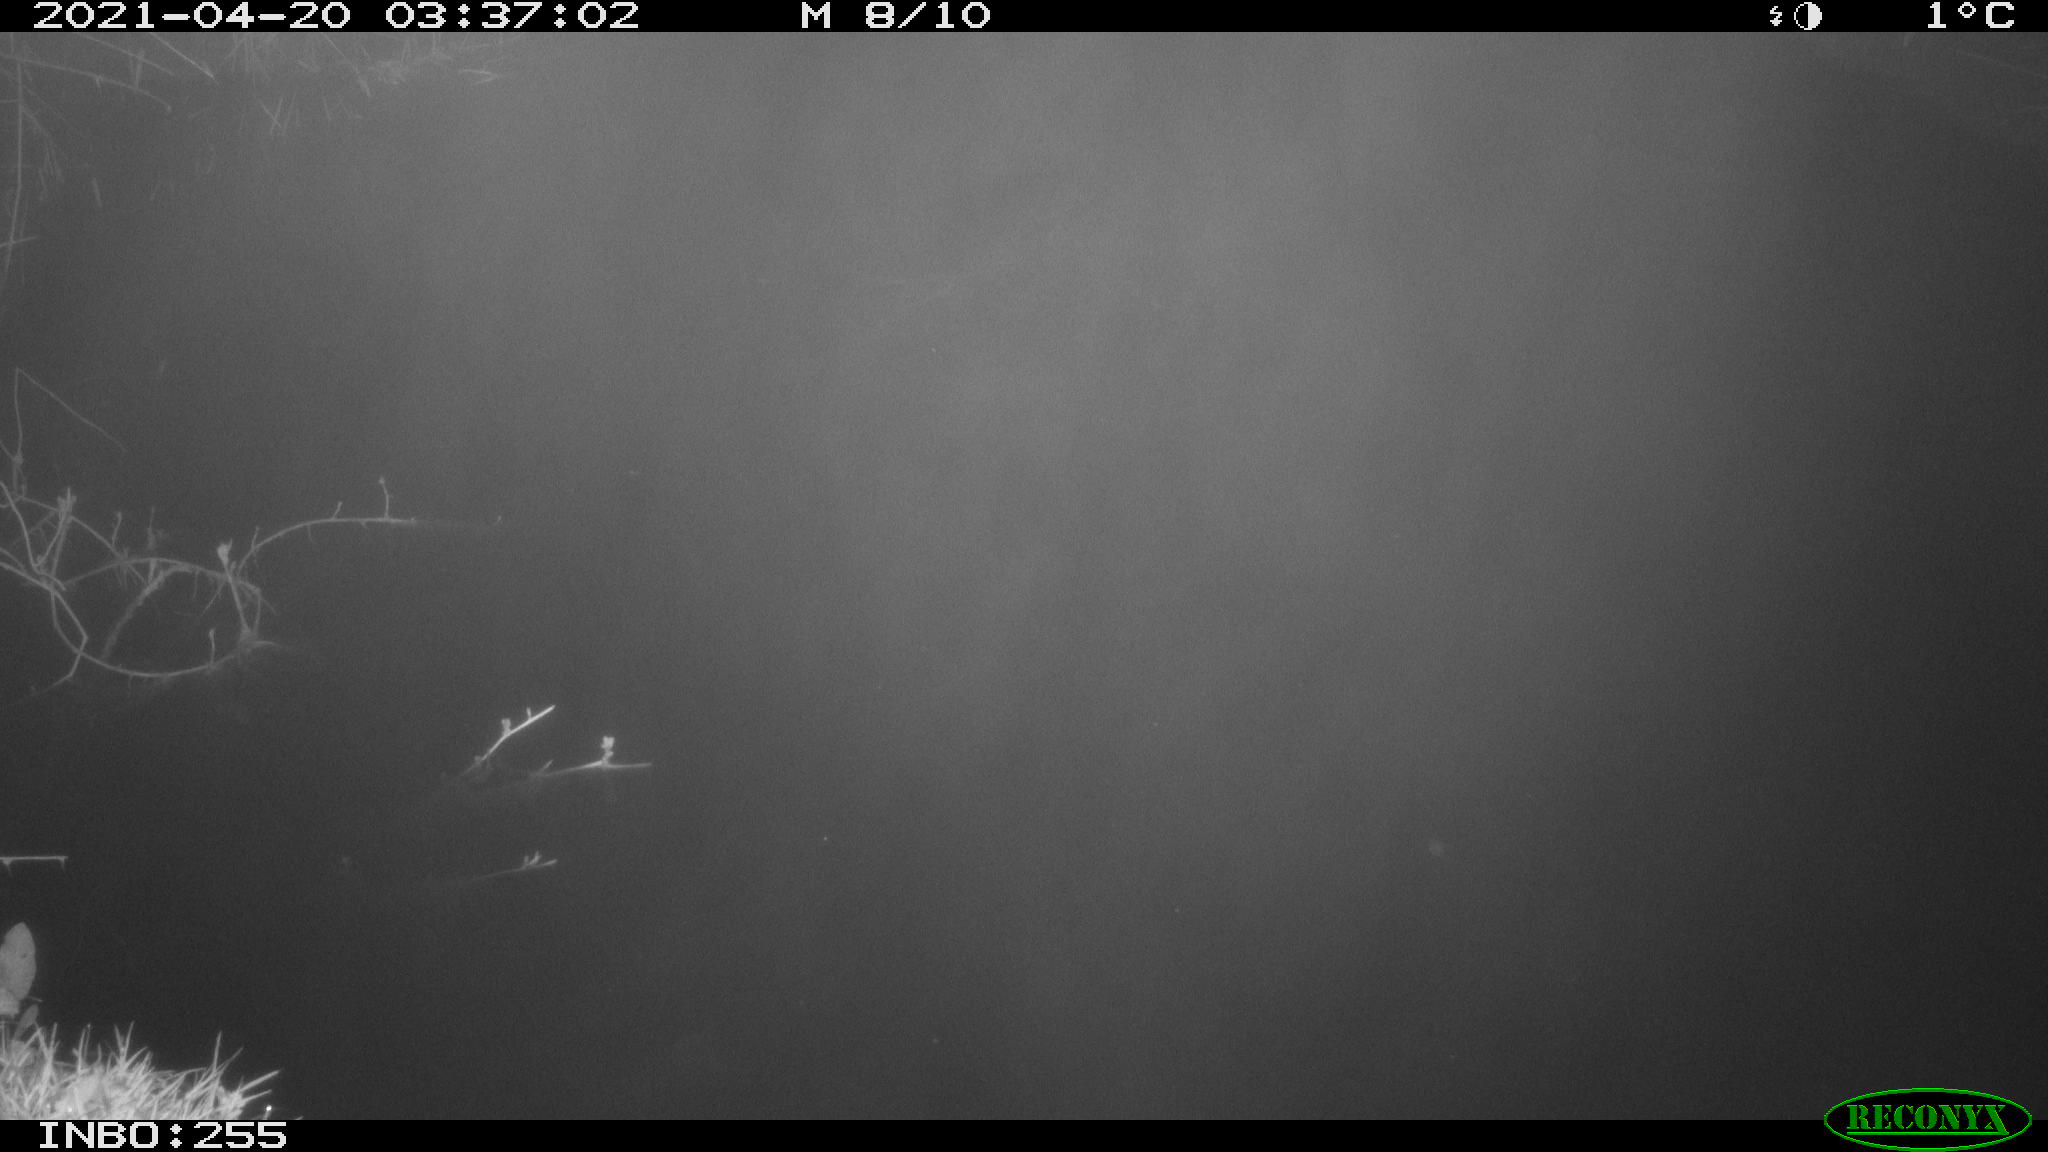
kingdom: Animalia
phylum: Chordata
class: Aves
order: Anseriformes
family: Anatidae
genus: Anas
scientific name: Anas platyrhynchos
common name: Mallard
